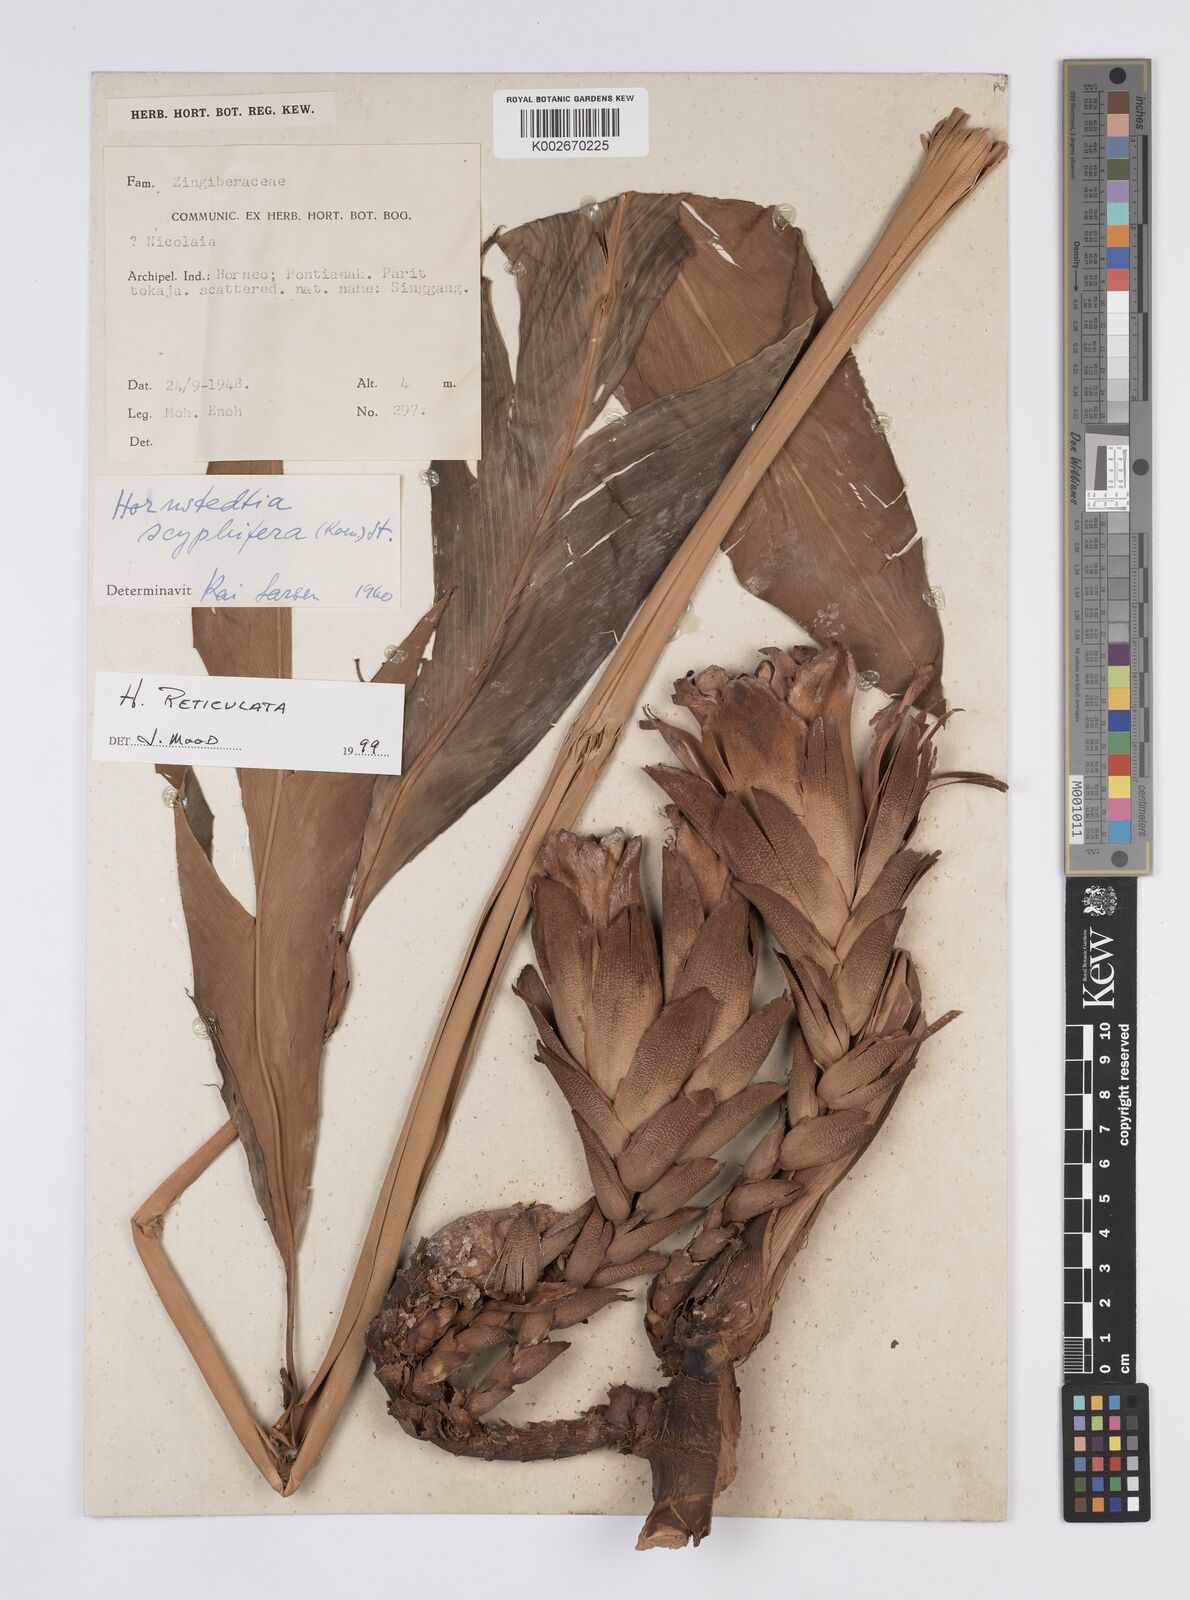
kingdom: Plantae
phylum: Tracheophyta
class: Liliopsida
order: Zingiberales
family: Zingiberaceae
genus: Hornstedtia
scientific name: Hornstedtia reticulata
